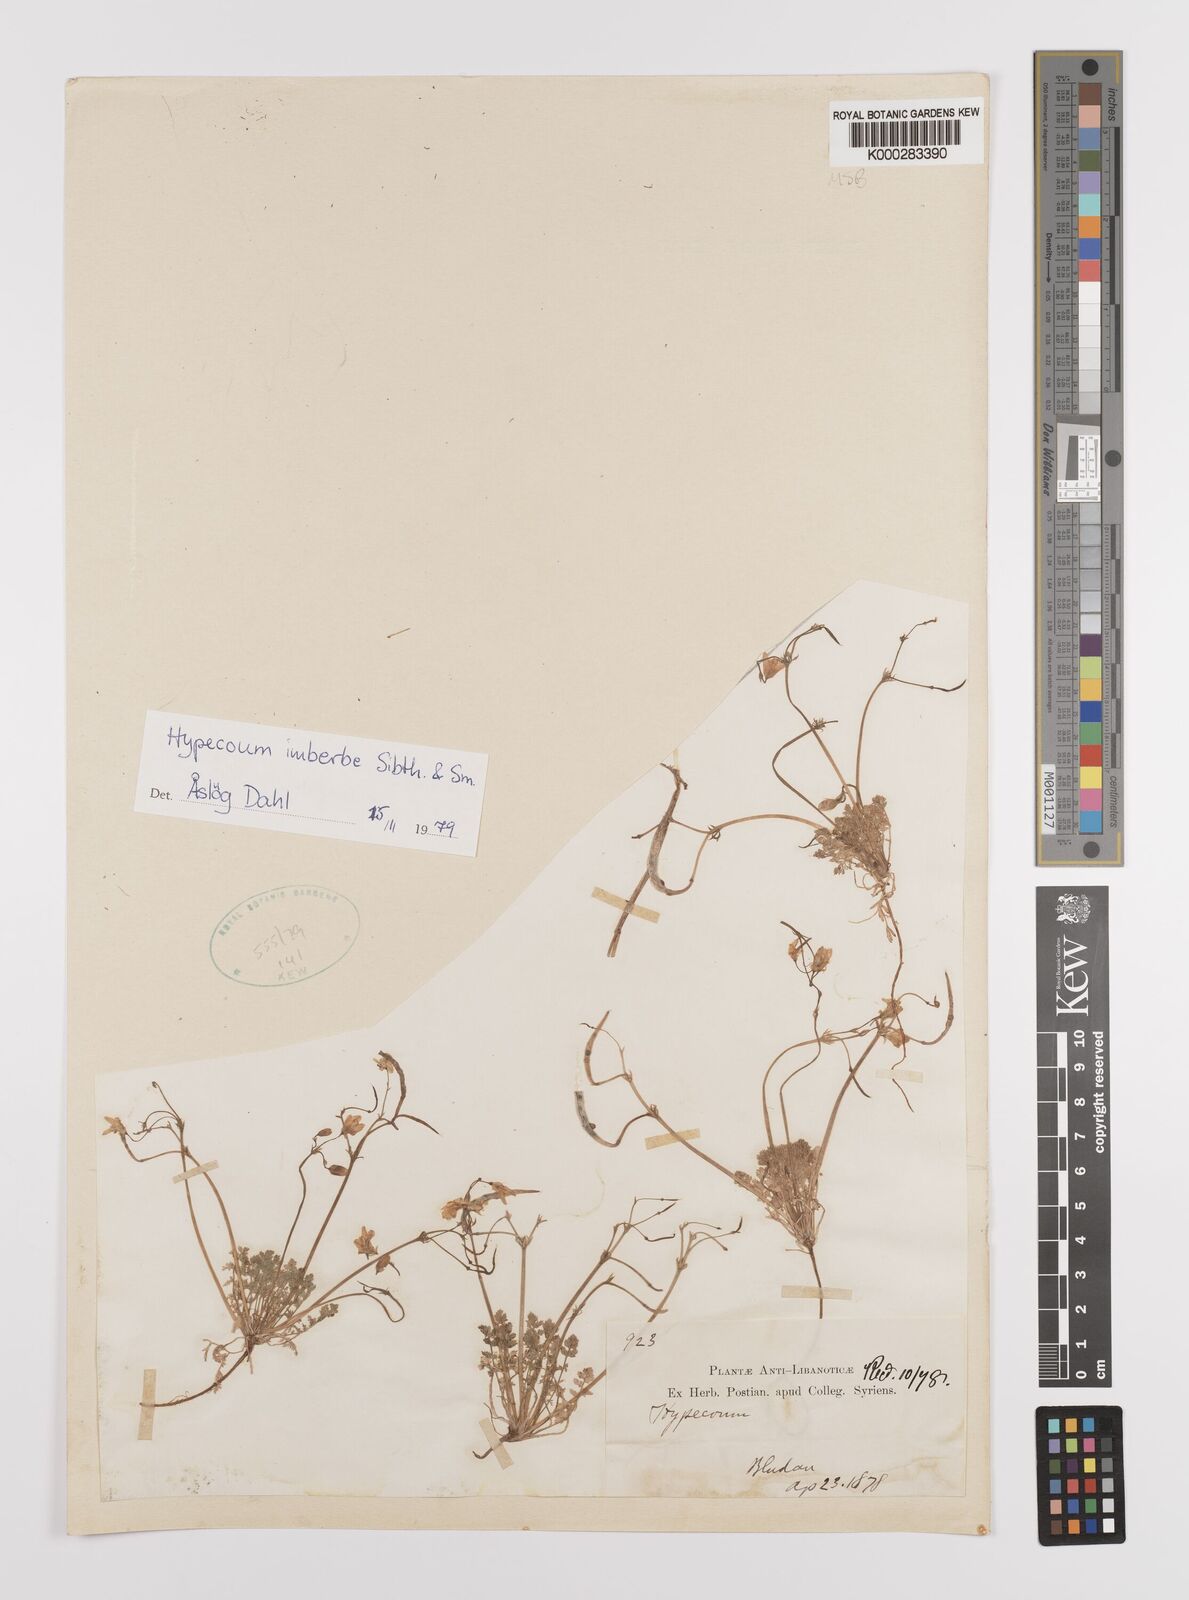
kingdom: Plantae
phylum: Tracheophyta
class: Magnoliopsida
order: Ranunculales
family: Papaveraceae
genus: Hypecoum
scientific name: Hypecoum imberbe
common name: Sicklefruit hypecoum
